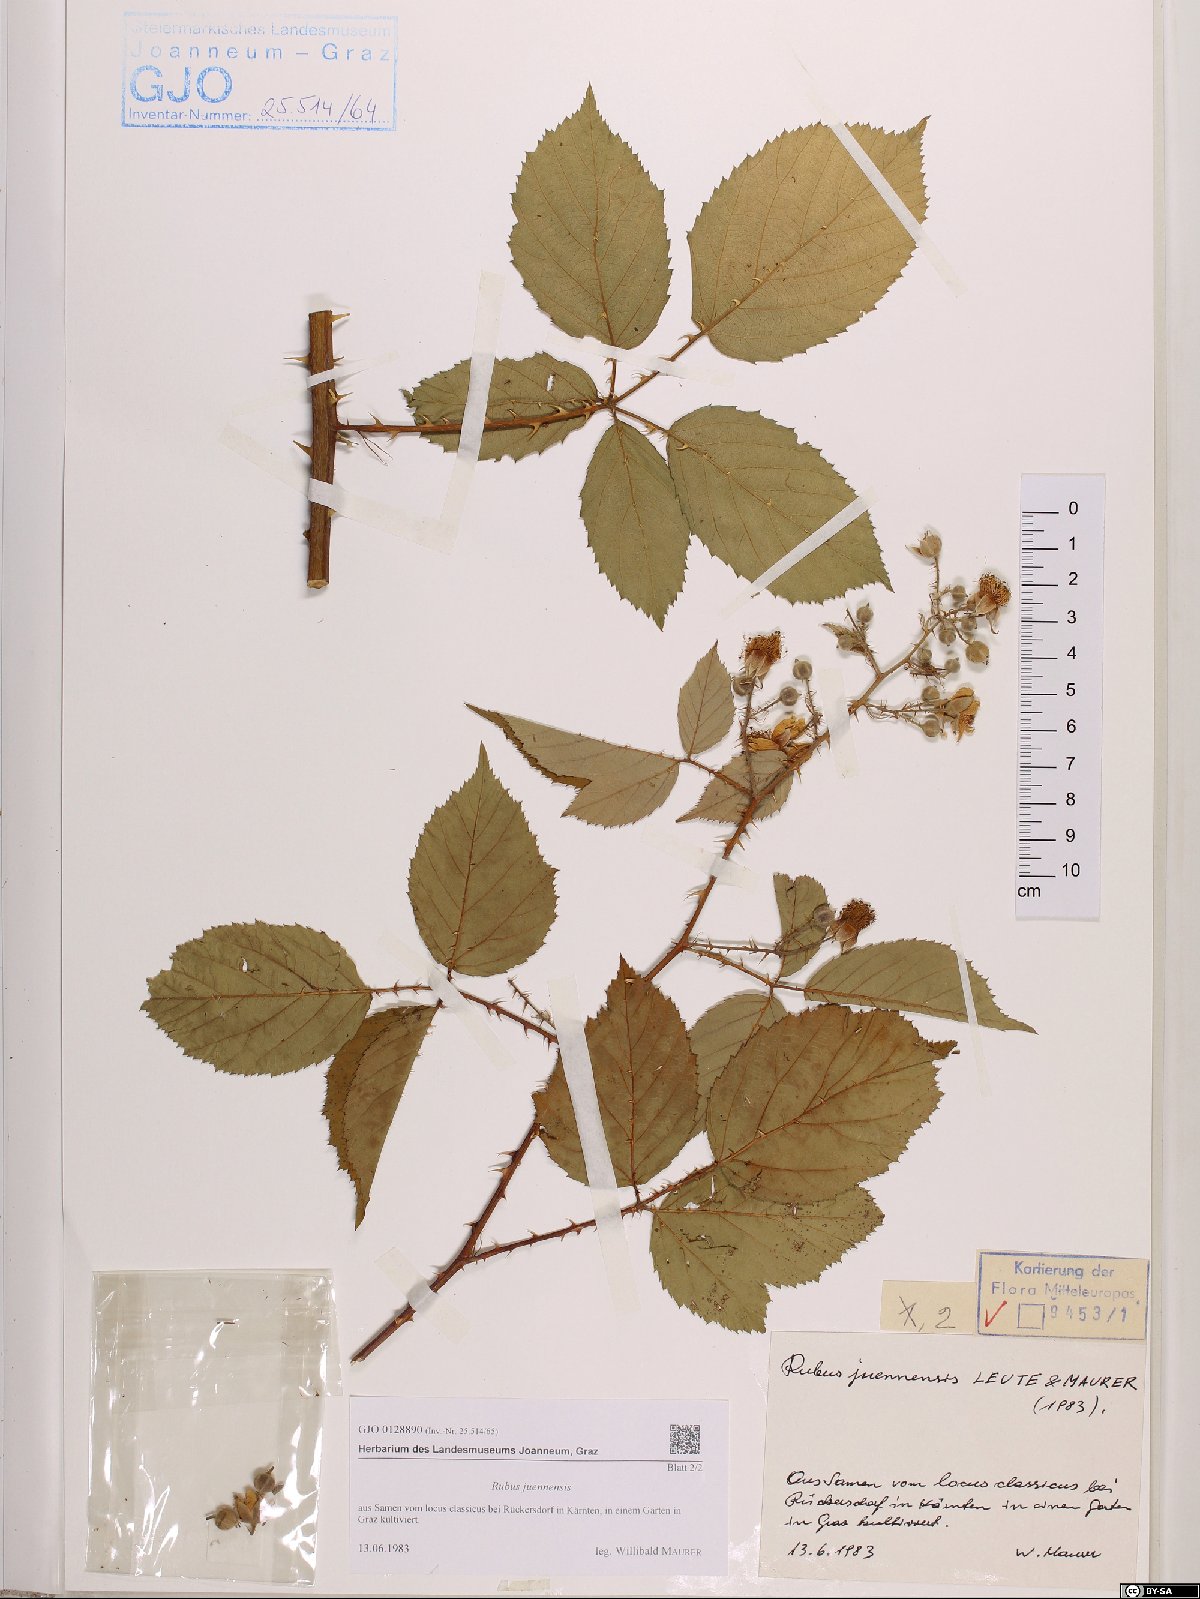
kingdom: Plantae
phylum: Tracheophyta
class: Magnoliopsida
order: Rosales
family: Rosaceae
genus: Rubus
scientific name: Rubus juennensis
